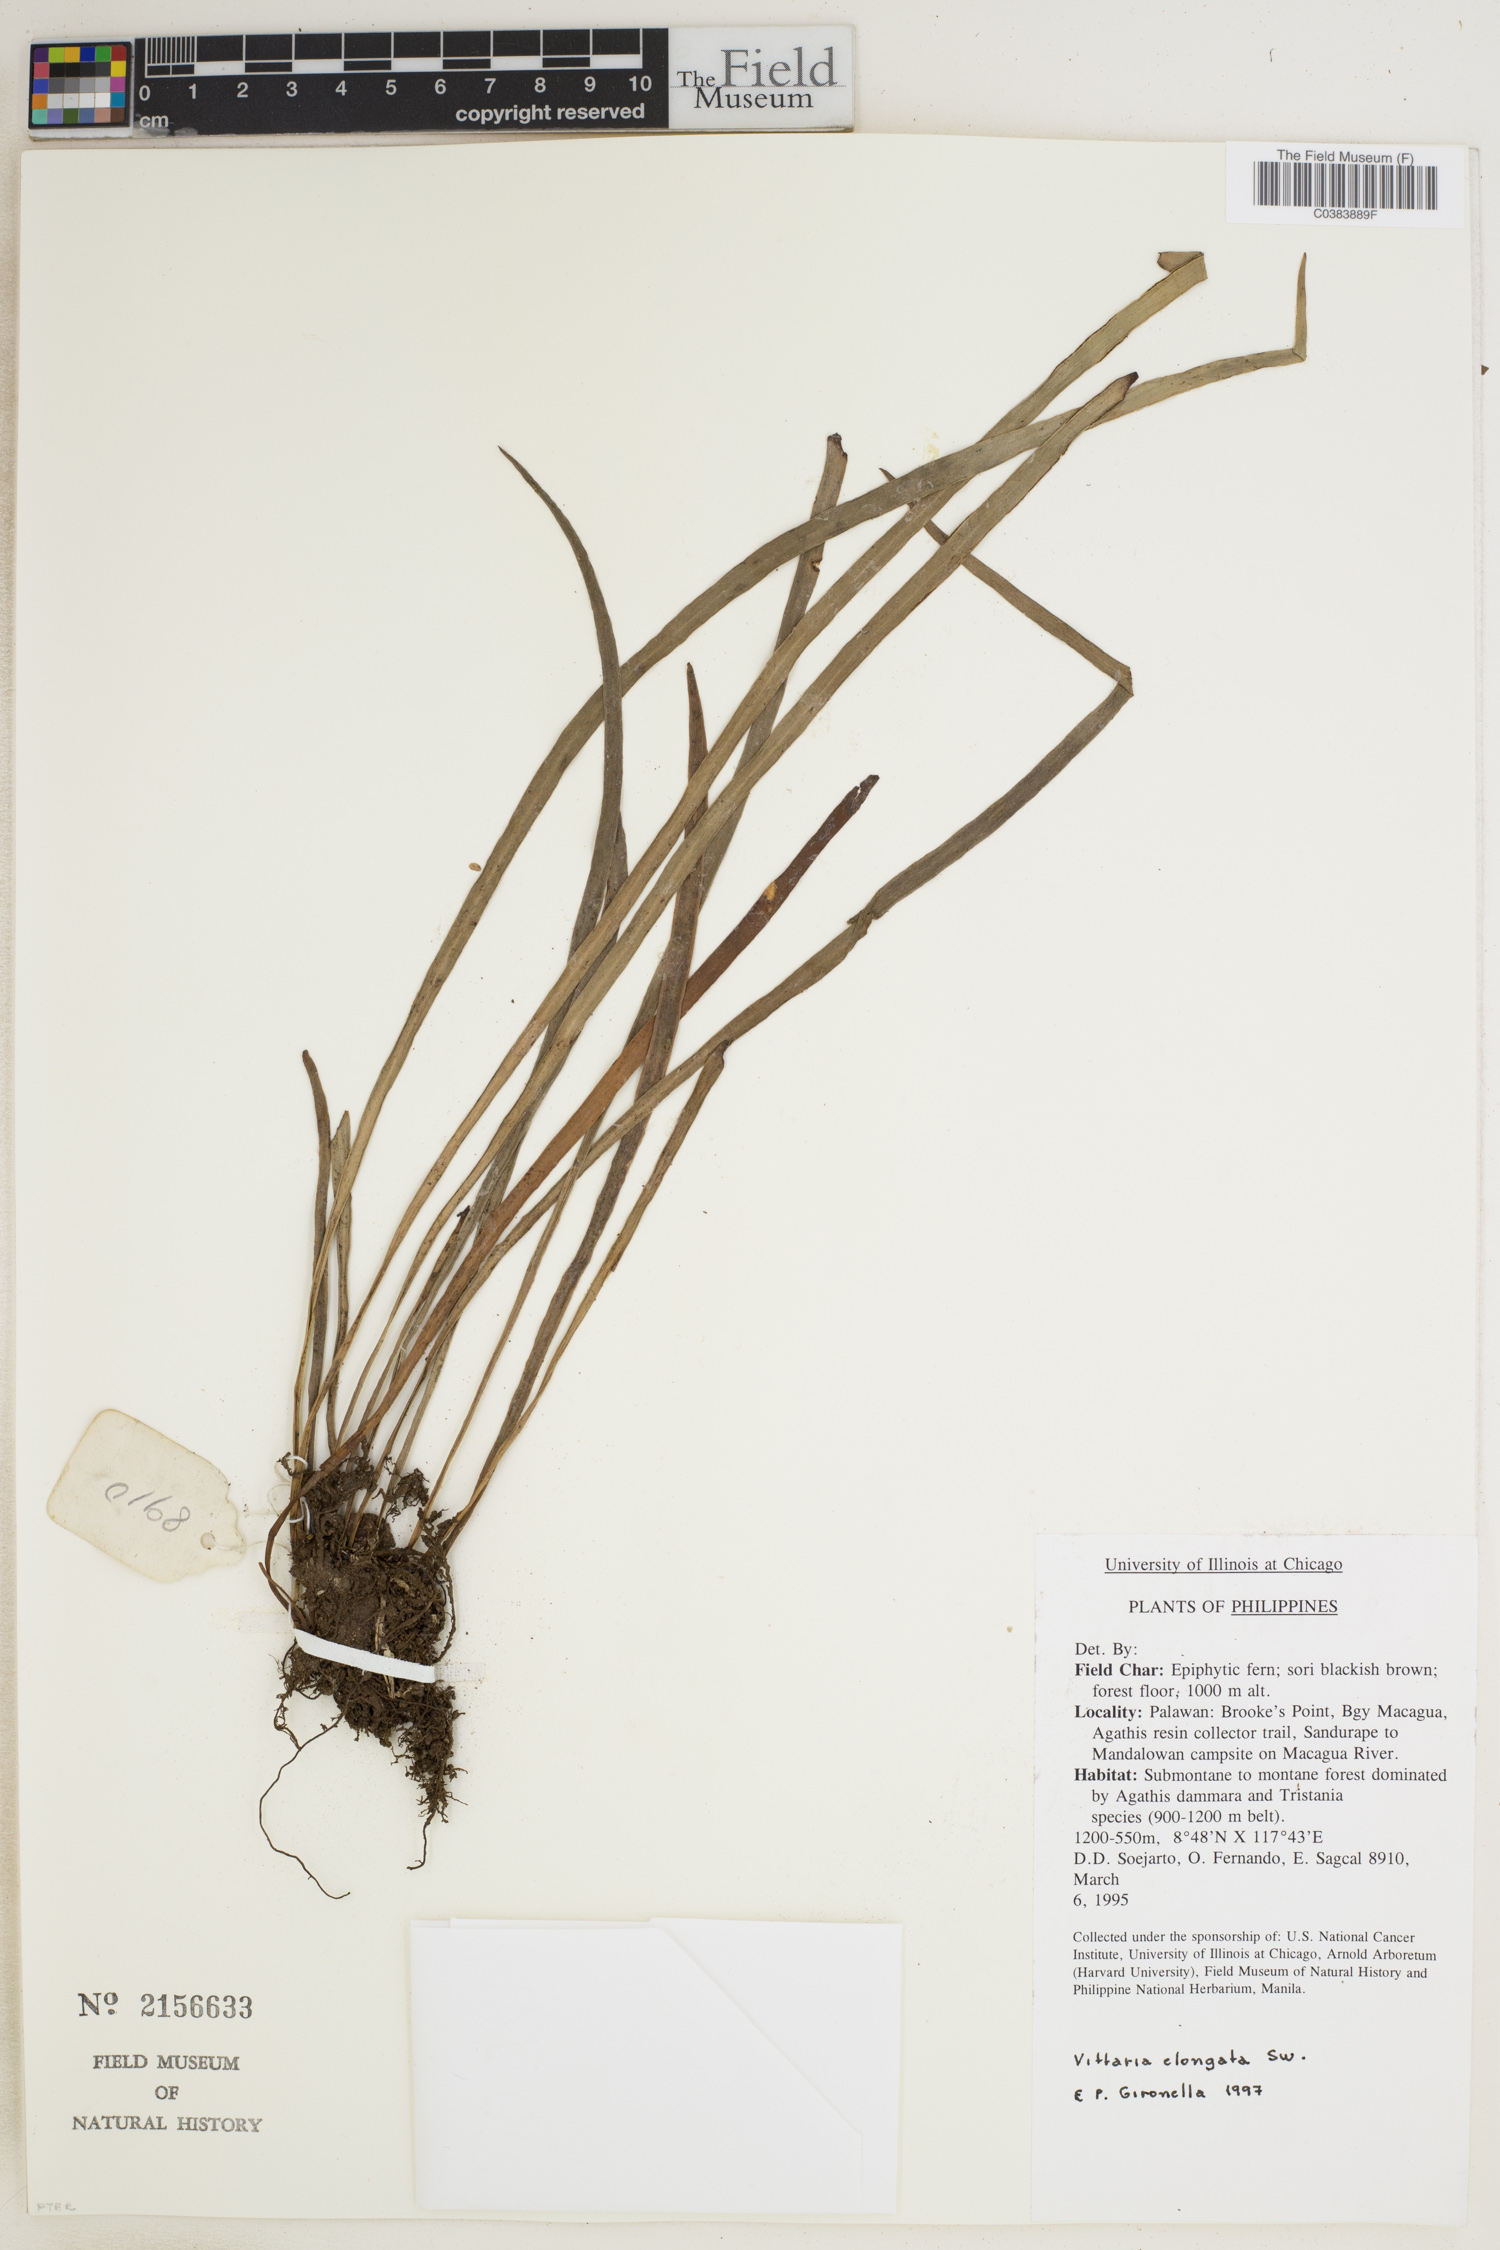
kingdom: Plantae
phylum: Tracheophyta
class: Polypodiopsida
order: Polypodiales
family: Pteridaceae
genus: Haplopteris
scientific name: Haplopteris elongata
